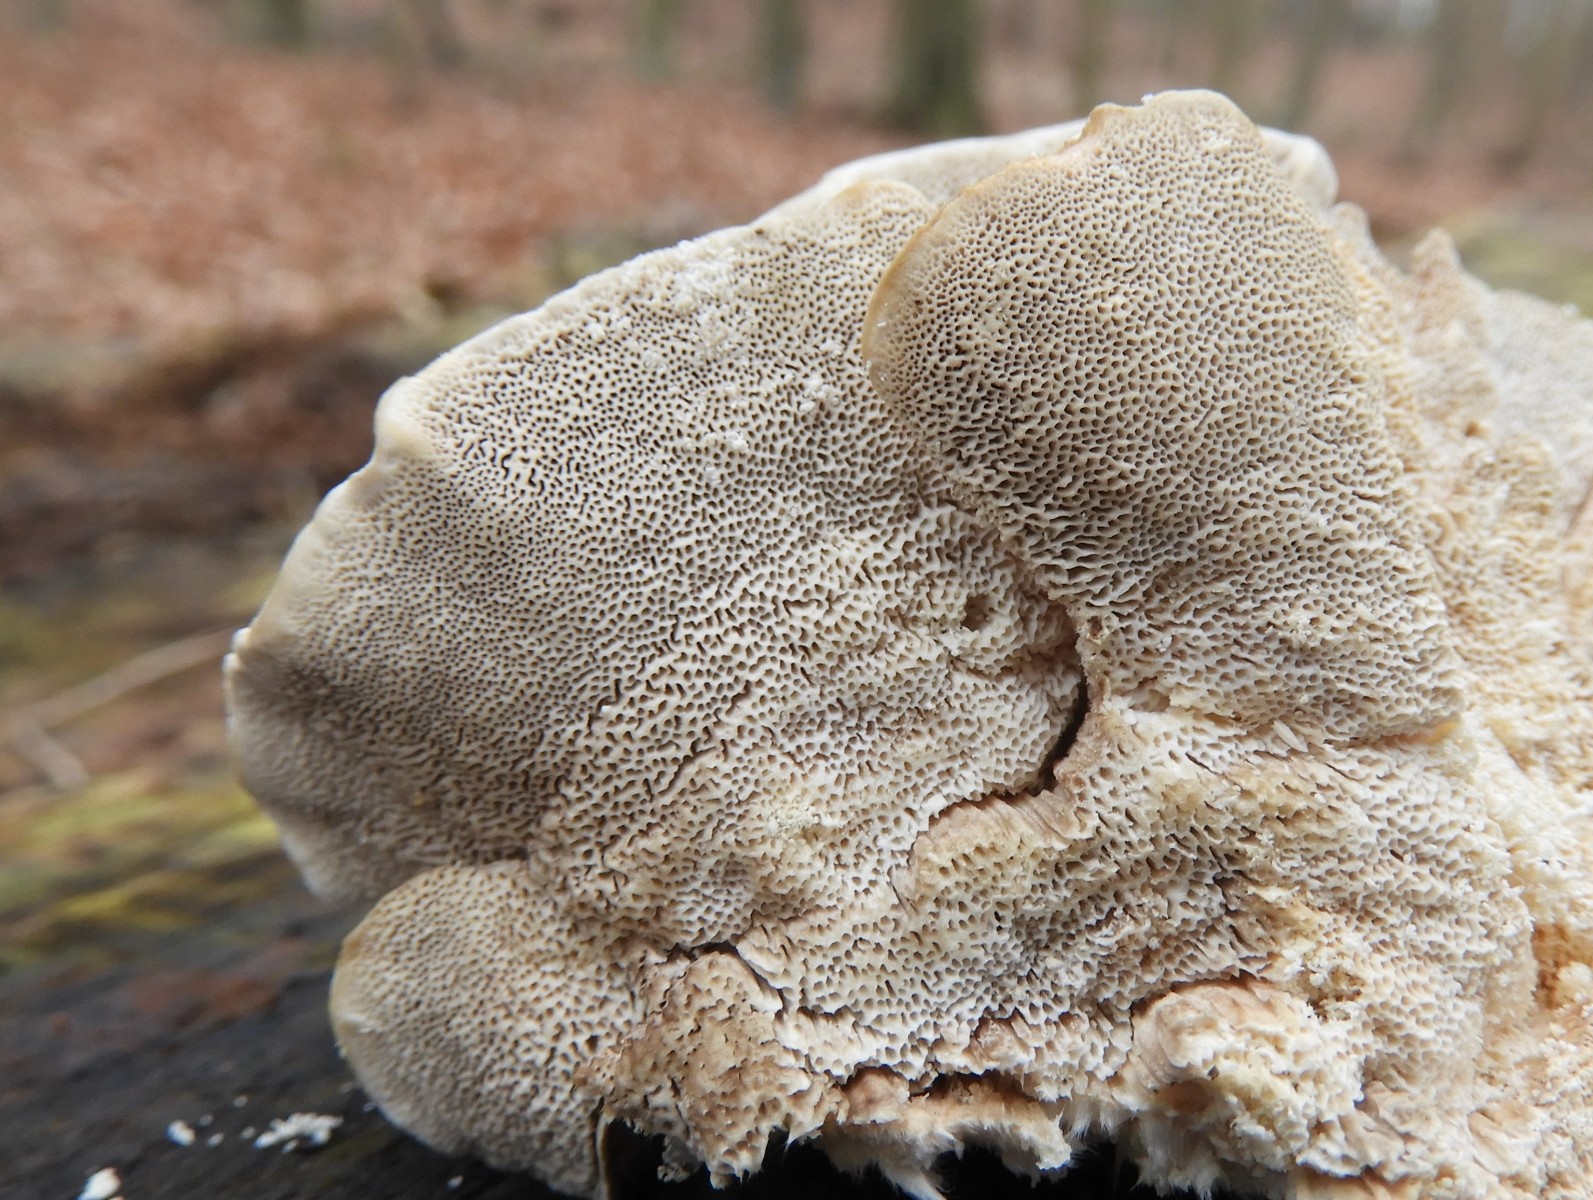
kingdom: Fungi
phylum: Basidiomycota
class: Agaricomycetes
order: Polyporales
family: Polyporaceae
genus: Trametes
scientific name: Trametes ochracea
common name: bæltet læderporesvamp
